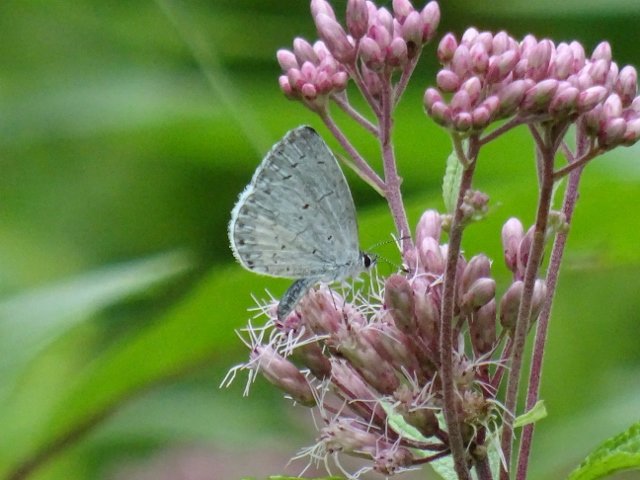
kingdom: Animalia
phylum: Arthropoda
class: Insecta
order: Lepidoptera
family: Lycaenidae
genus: Celastrina
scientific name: Celastrina
